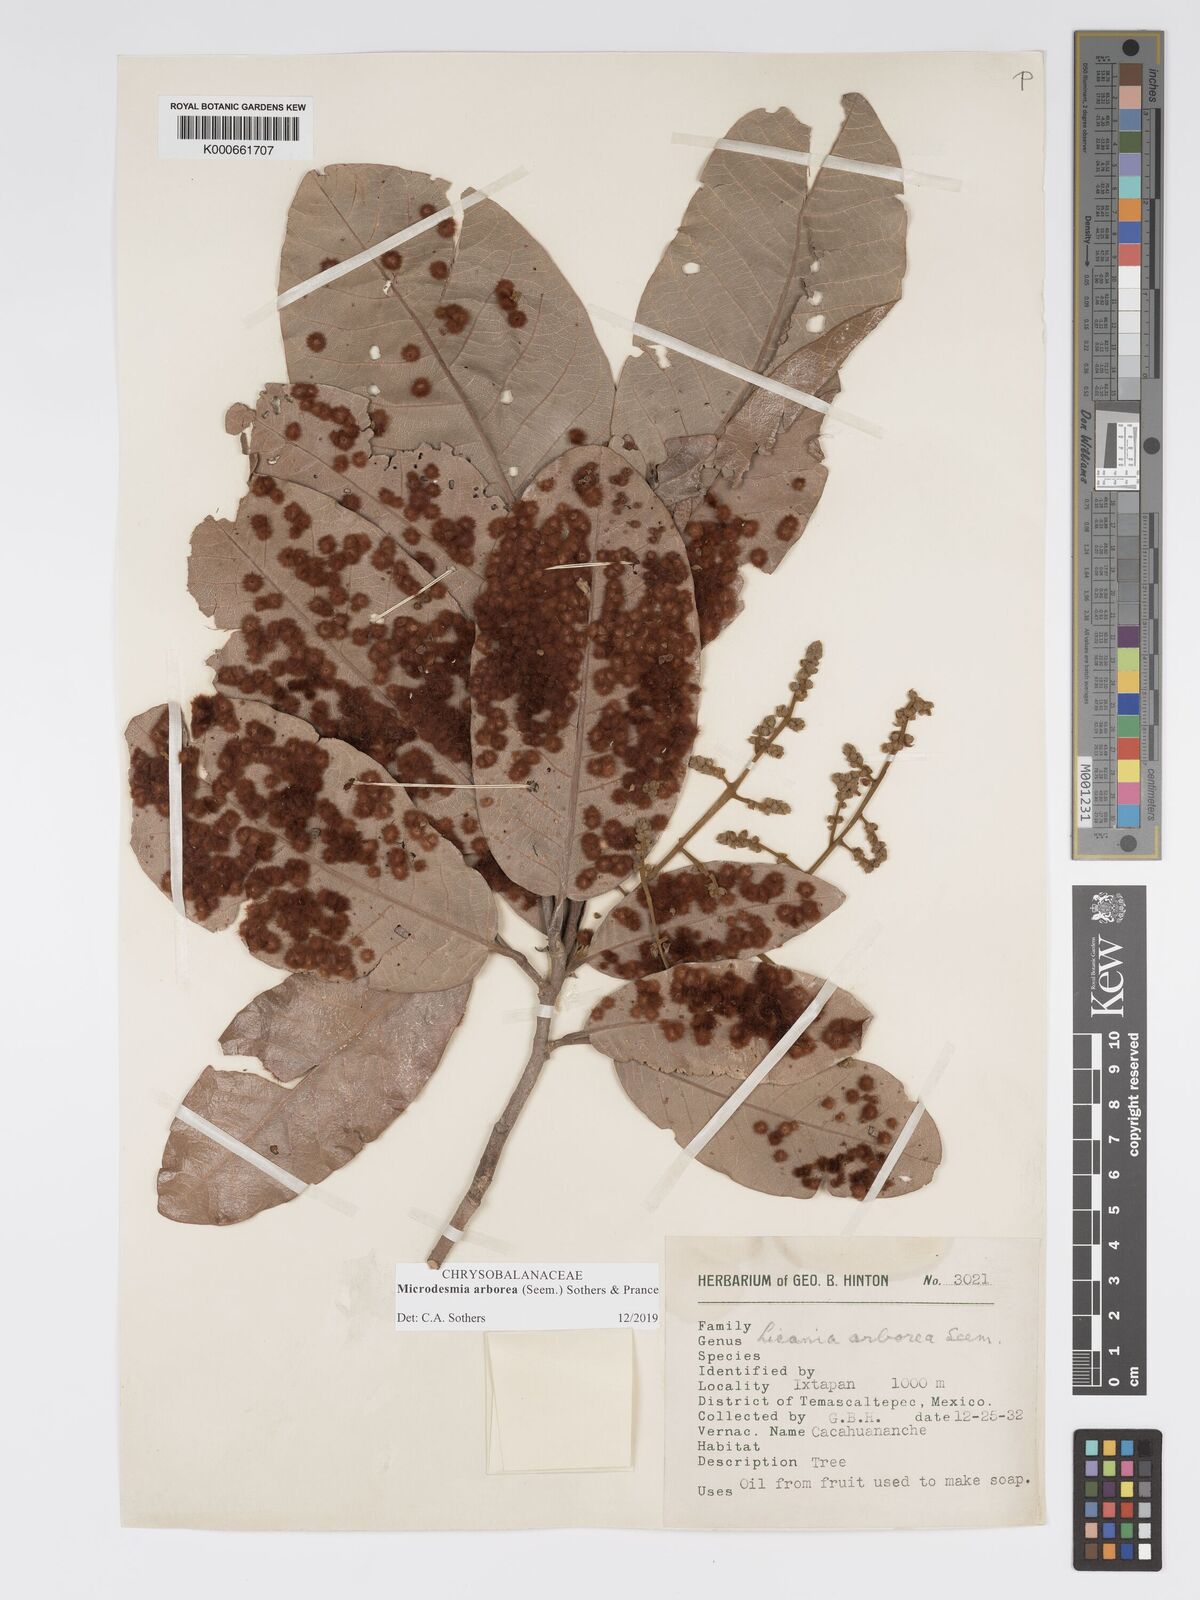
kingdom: Plantae
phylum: Tracheophyta
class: Magnoliopsida
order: Malpighiales
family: Chrysobalanaceae
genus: Licania
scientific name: Licania
